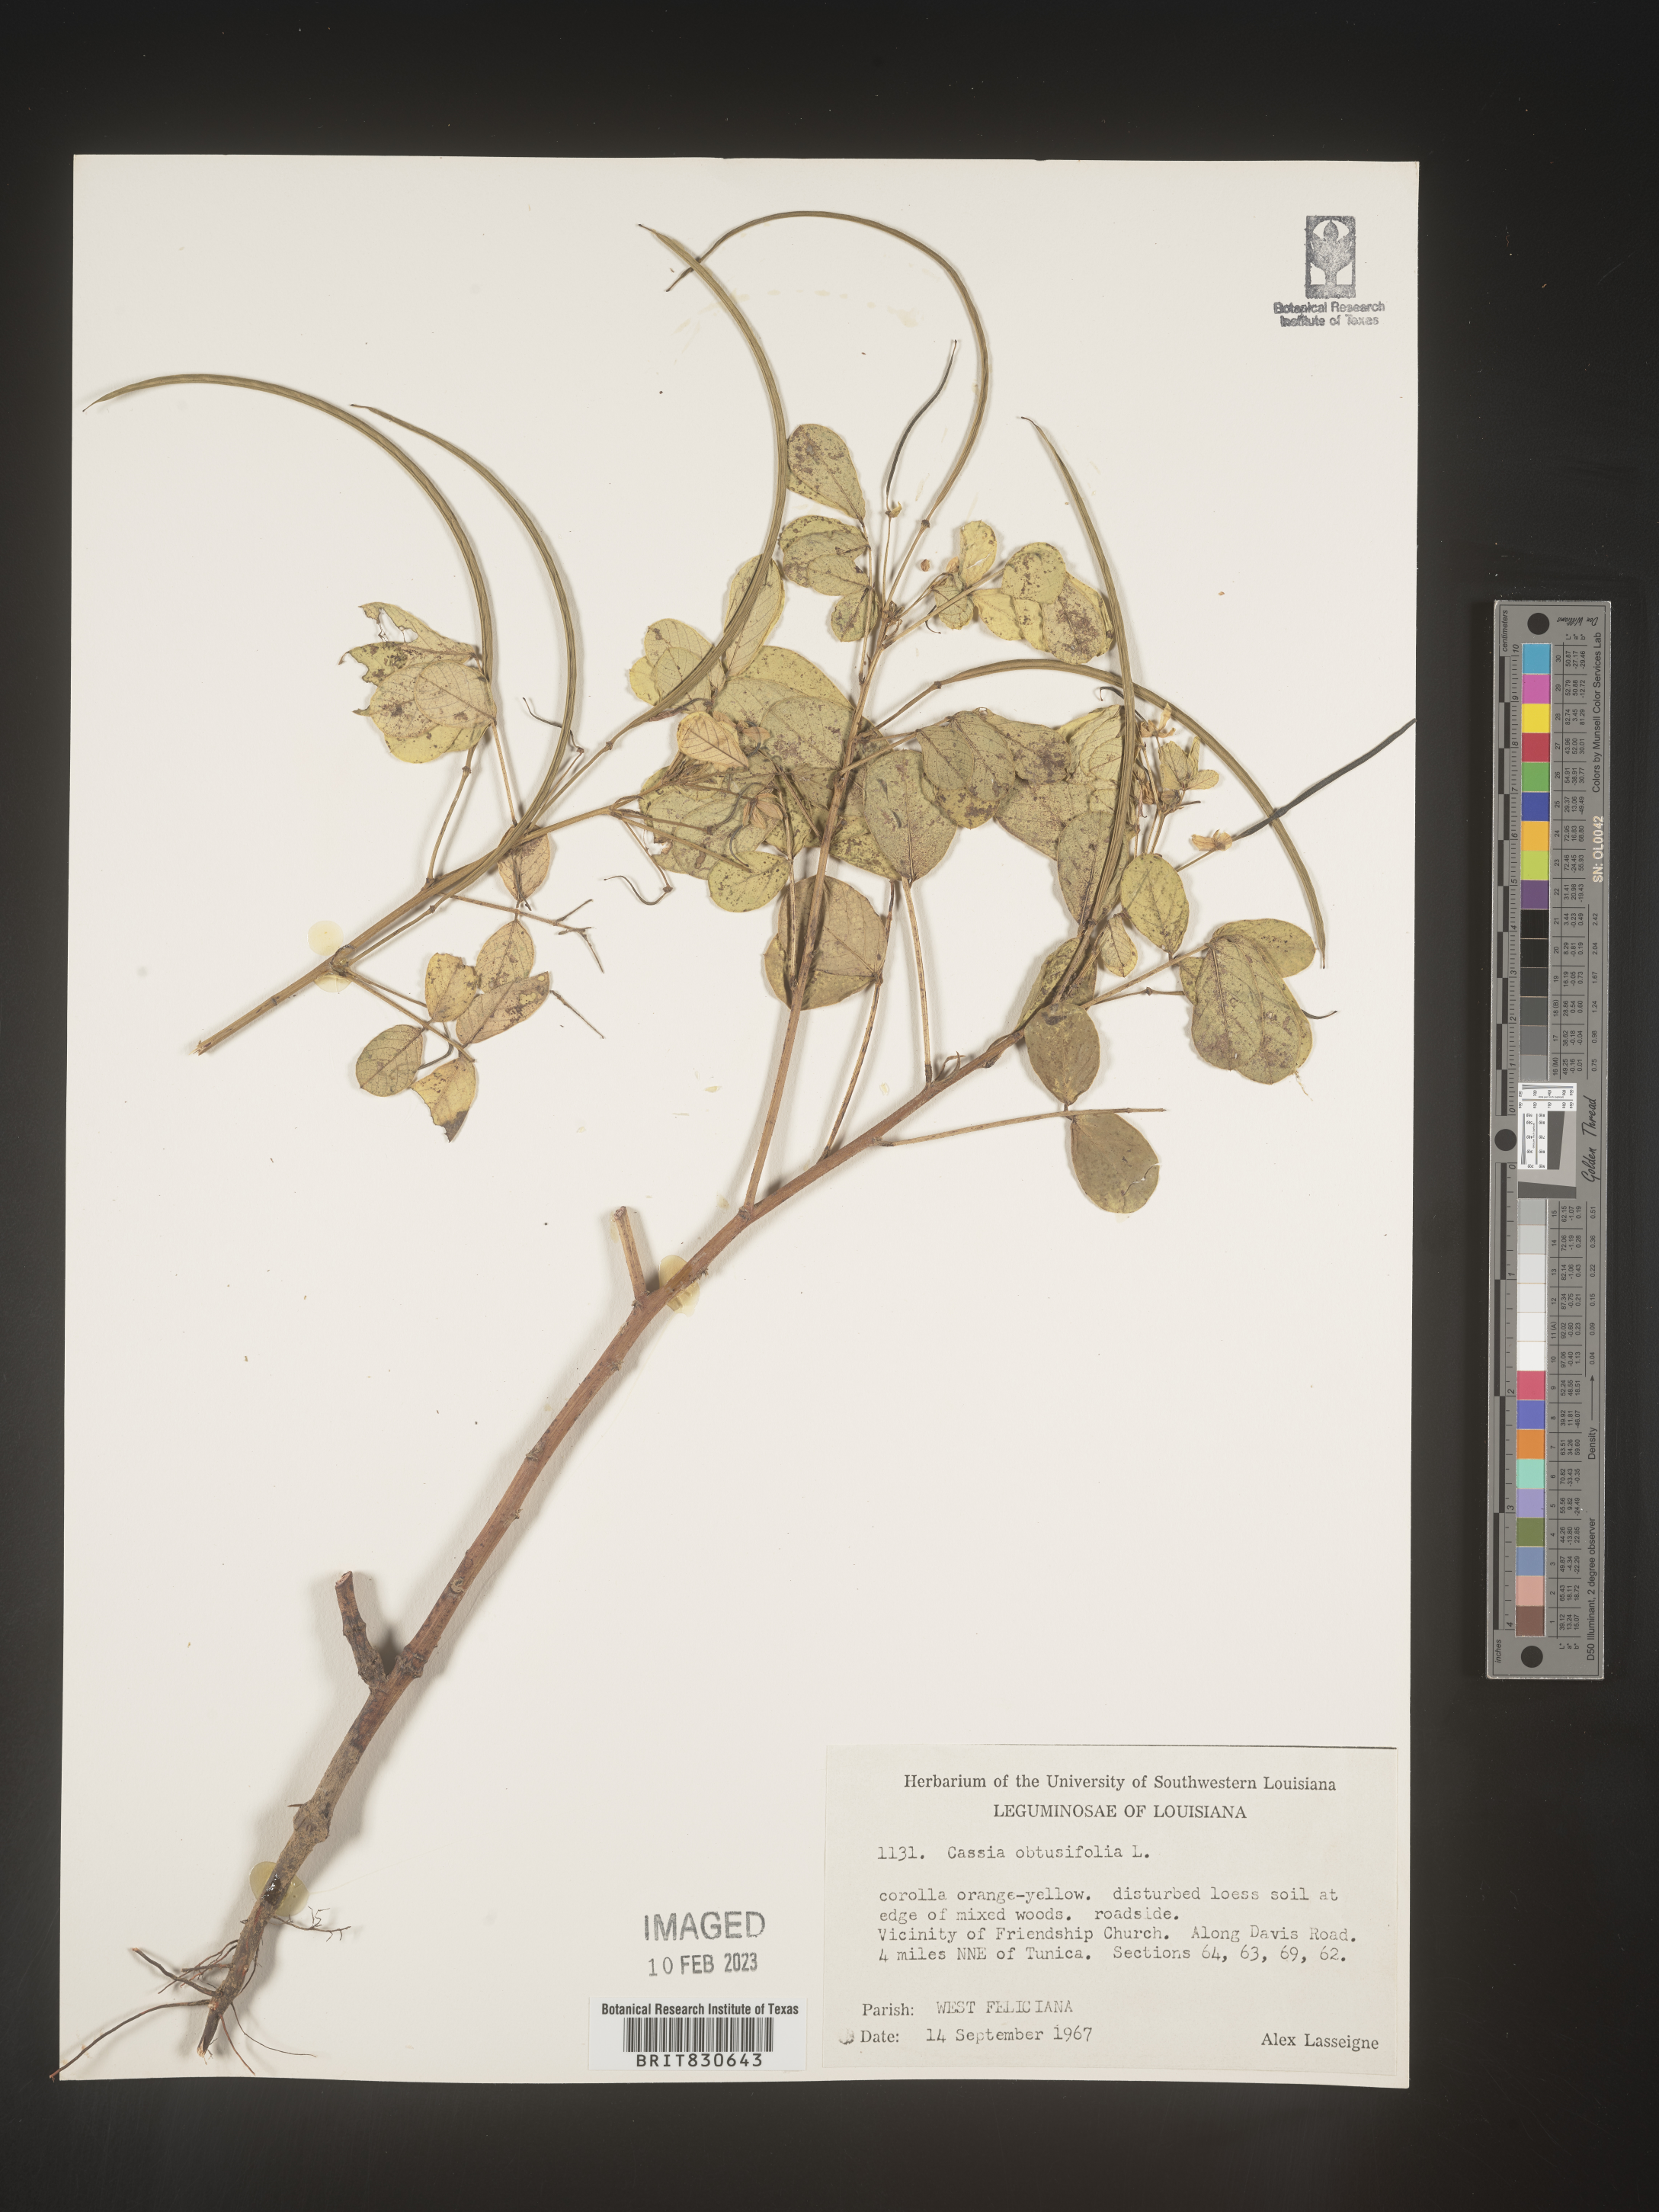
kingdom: Plantae
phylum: Tracheophyta
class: Magnoliopsida
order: Fabales
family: Fabaceae
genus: Senna
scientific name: Senna obtusifolia
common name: Java-bean
